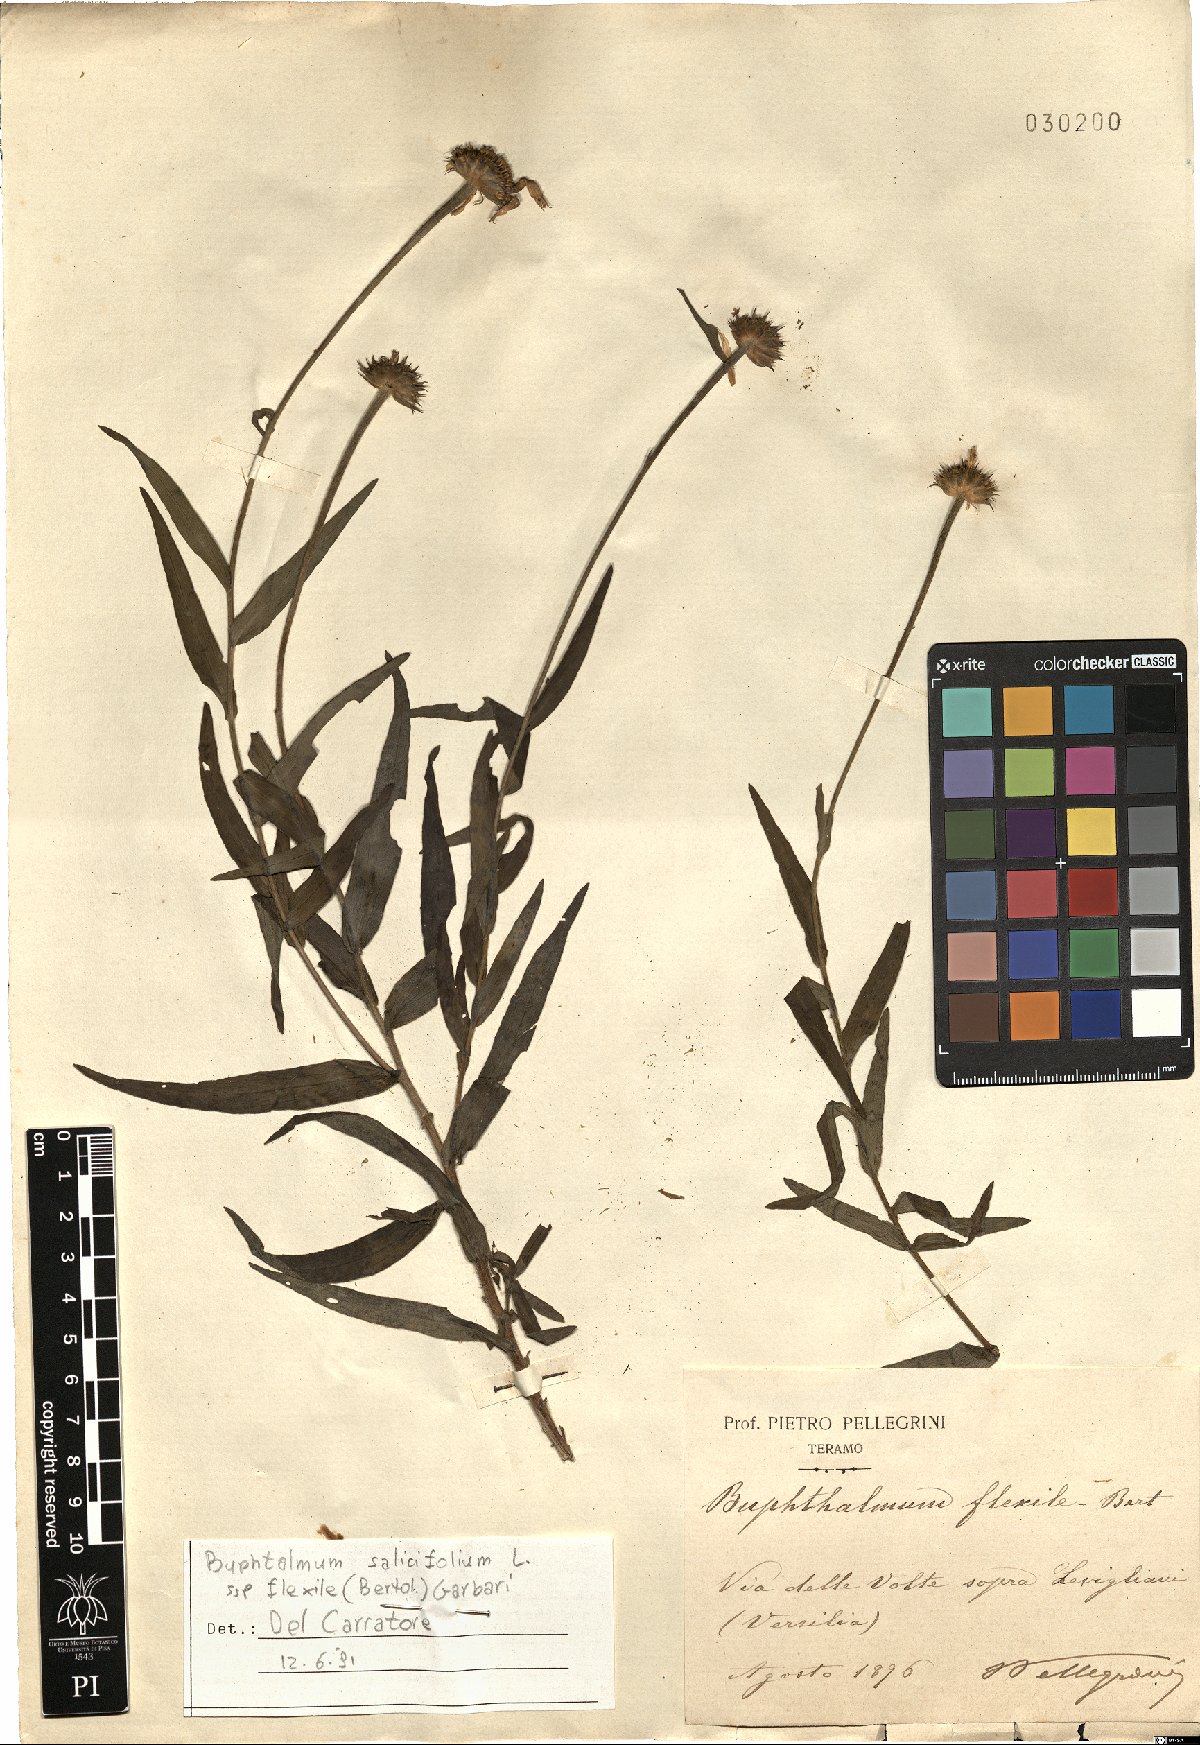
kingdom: Plantae
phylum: Tracheophyta
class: Magnoliopsida
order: Asterales
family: Asteraceae
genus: Buphthalmum
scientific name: Buphthalmum salicifolium
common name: Willow-leaved yellow-oxeye
